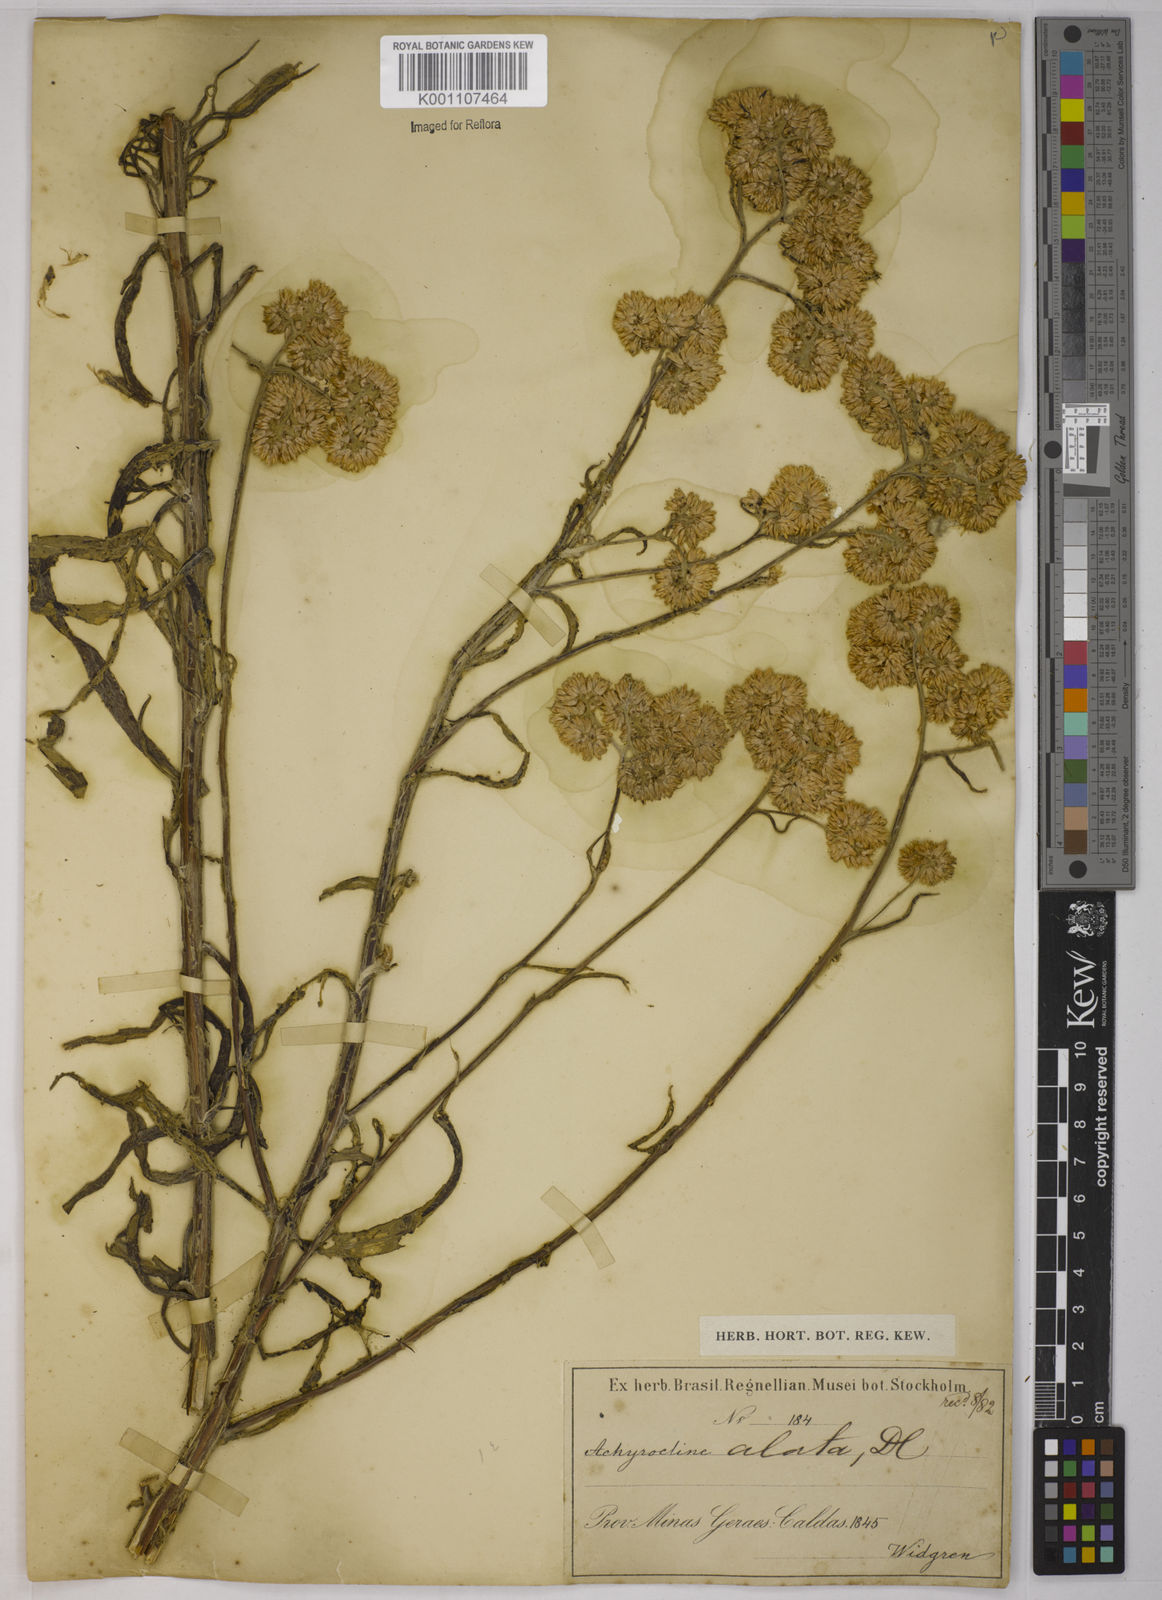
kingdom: Plantae
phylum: Tracheophyta
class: Magnoliopsida
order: Asterales
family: Asteraceae
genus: Achyrocline
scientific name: Achyrocline alata
